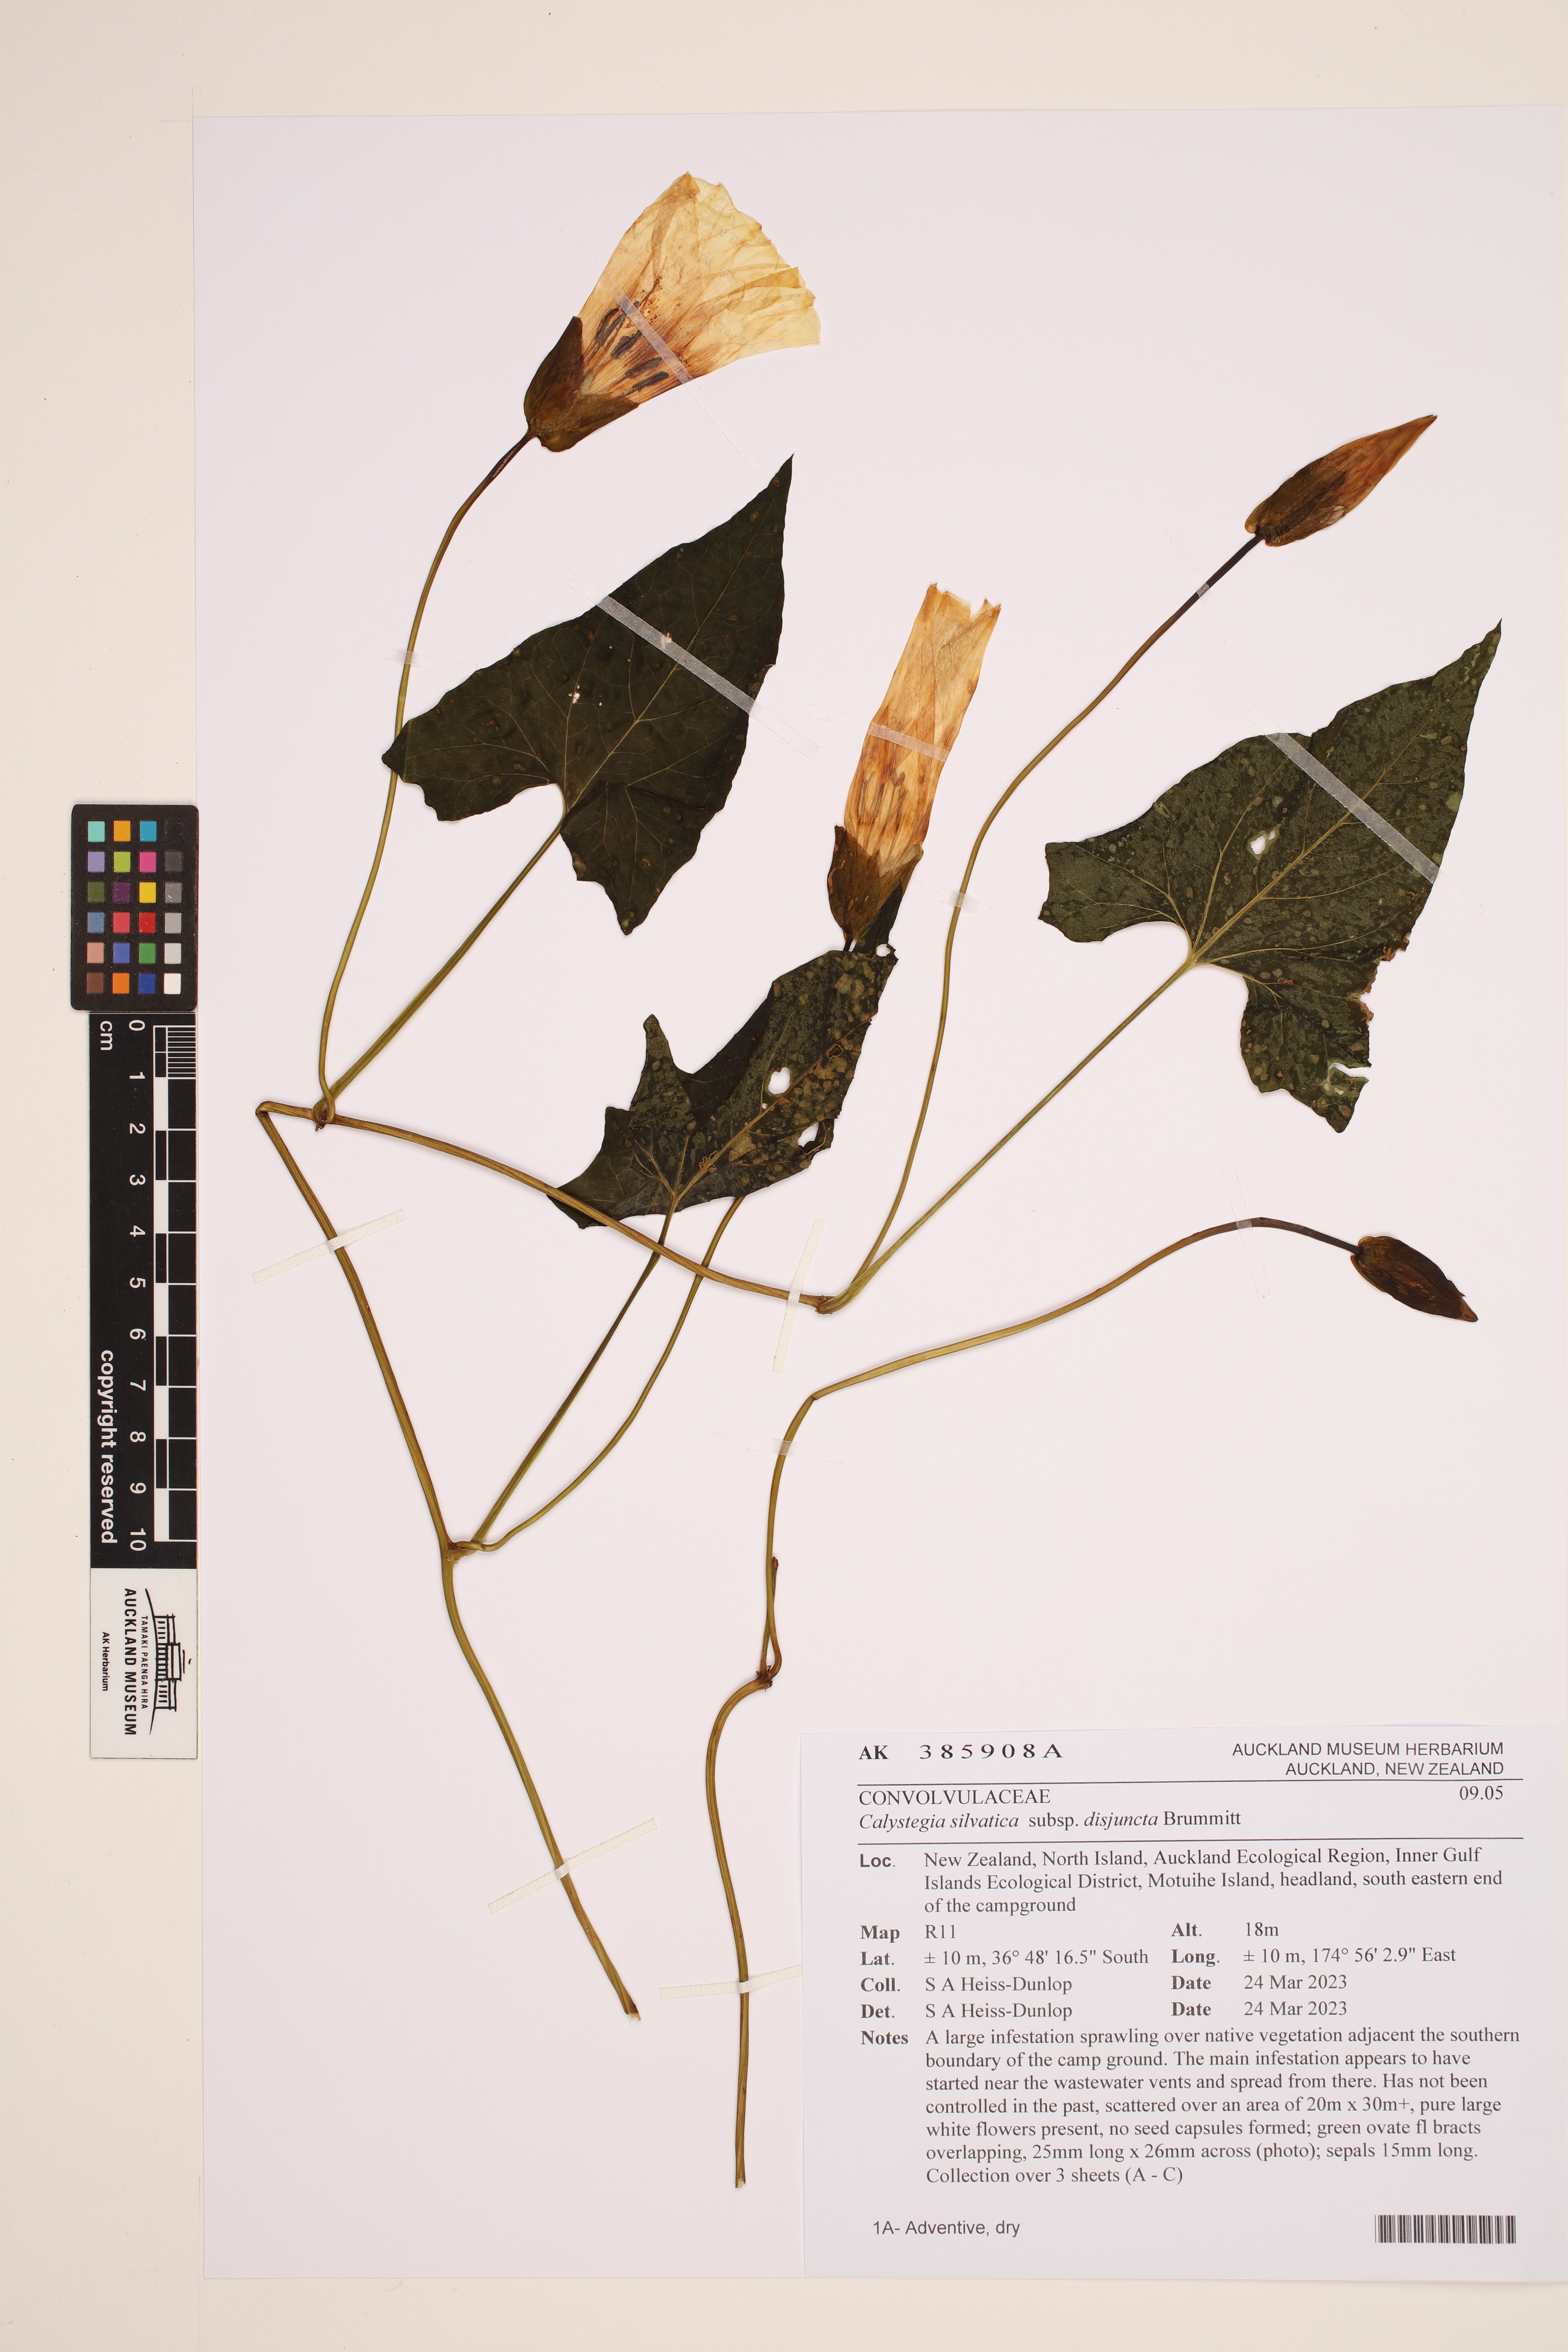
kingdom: Plantae
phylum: Tracheophyta
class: Magnoliopsida
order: Solanales
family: Convolvulaceae
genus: Calystegia
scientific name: Calystegia silvatica
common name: Large bindweed
